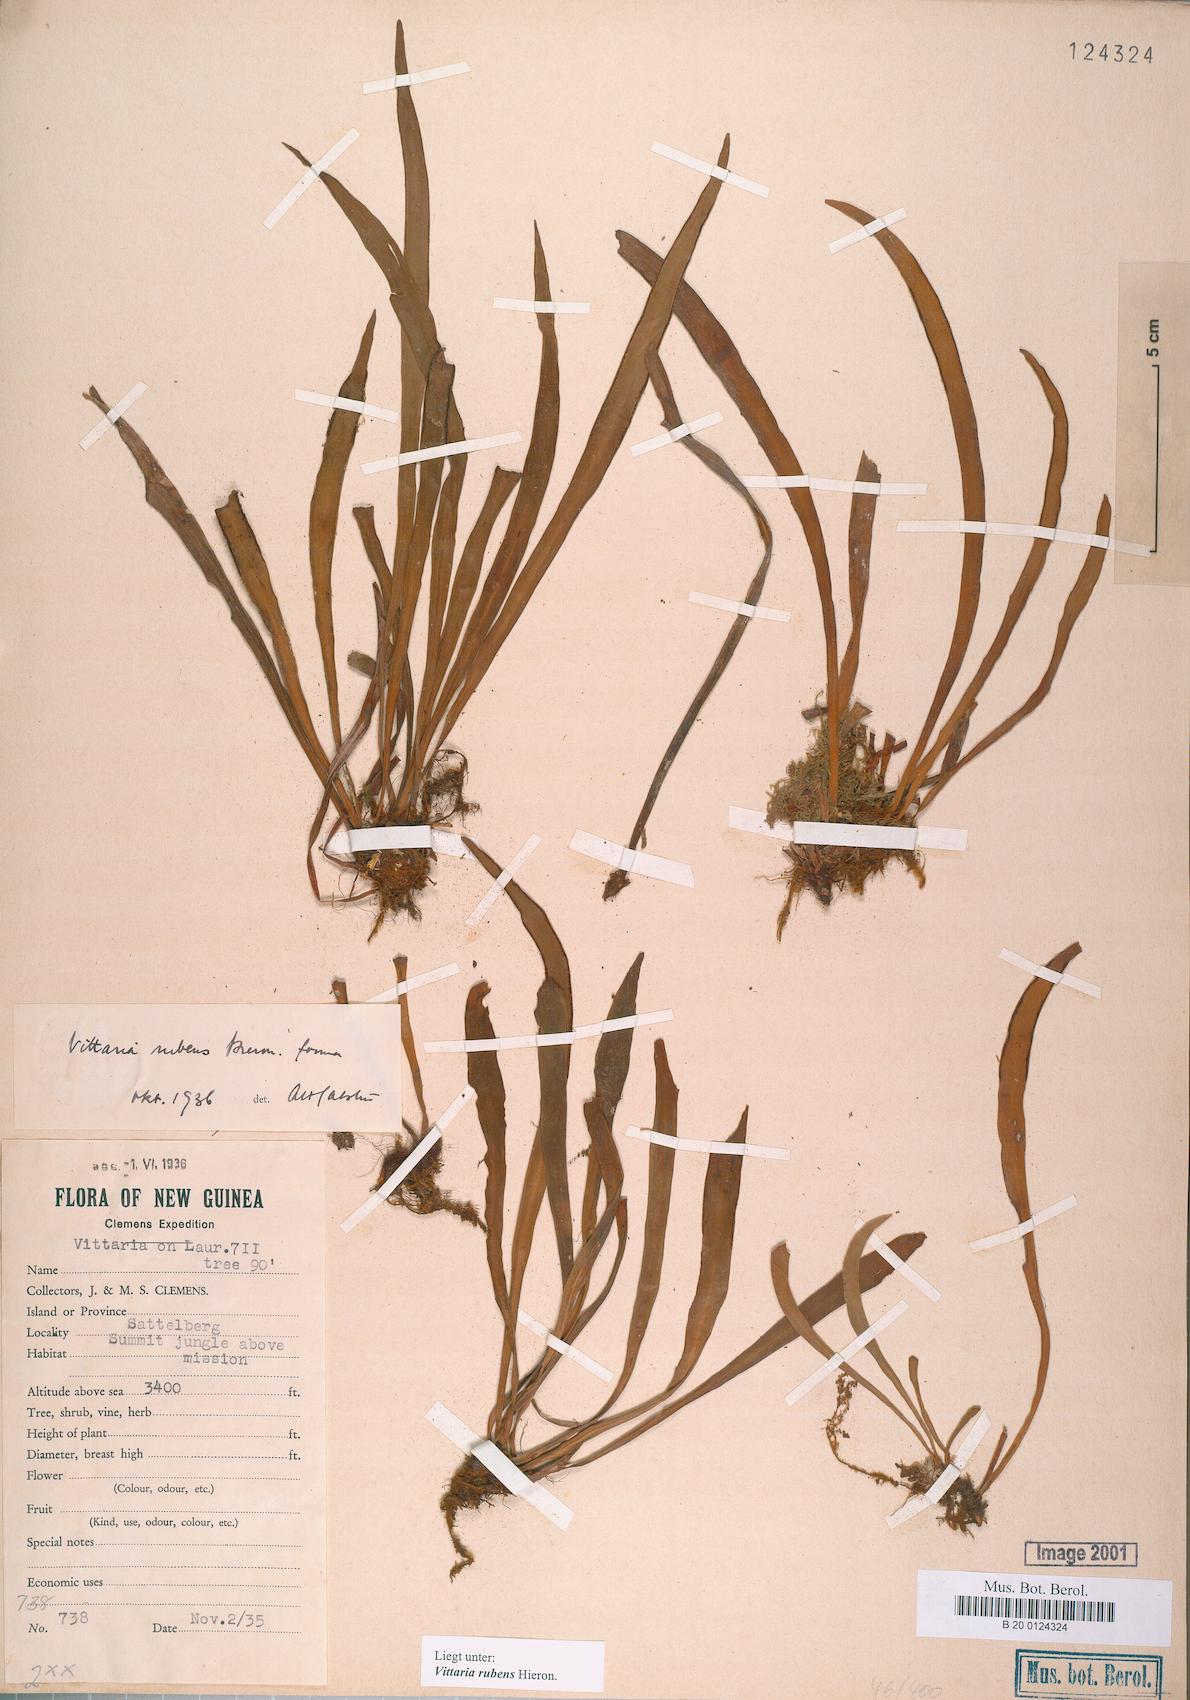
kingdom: Plantae
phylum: Tracheophyta
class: Polypodiopsida
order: Polypodiales
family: Pteridaceae
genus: Haplopteris
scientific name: Haplopteris elongata
